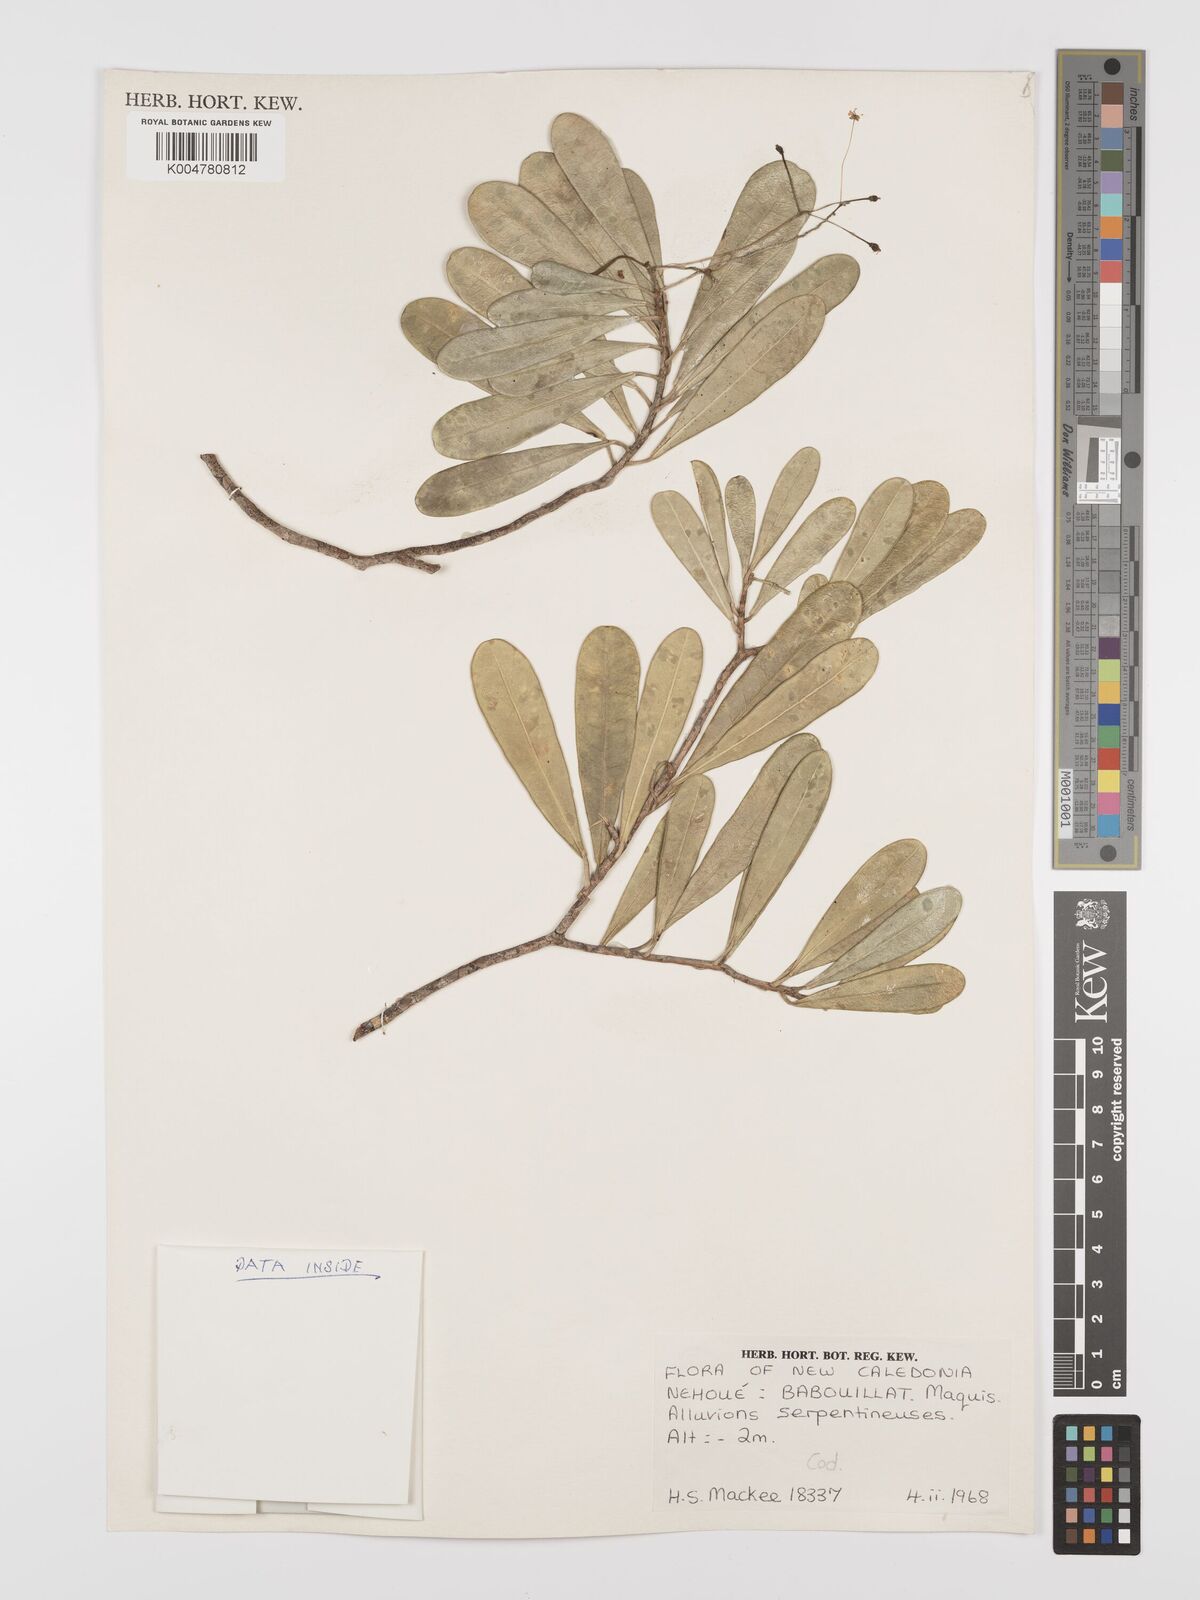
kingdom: Plantae
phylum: Tracheophyta
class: Magnoliopsida
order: Malpighiales
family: Euphorbiaceae
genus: Codiaeum
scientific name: Codiaeum
